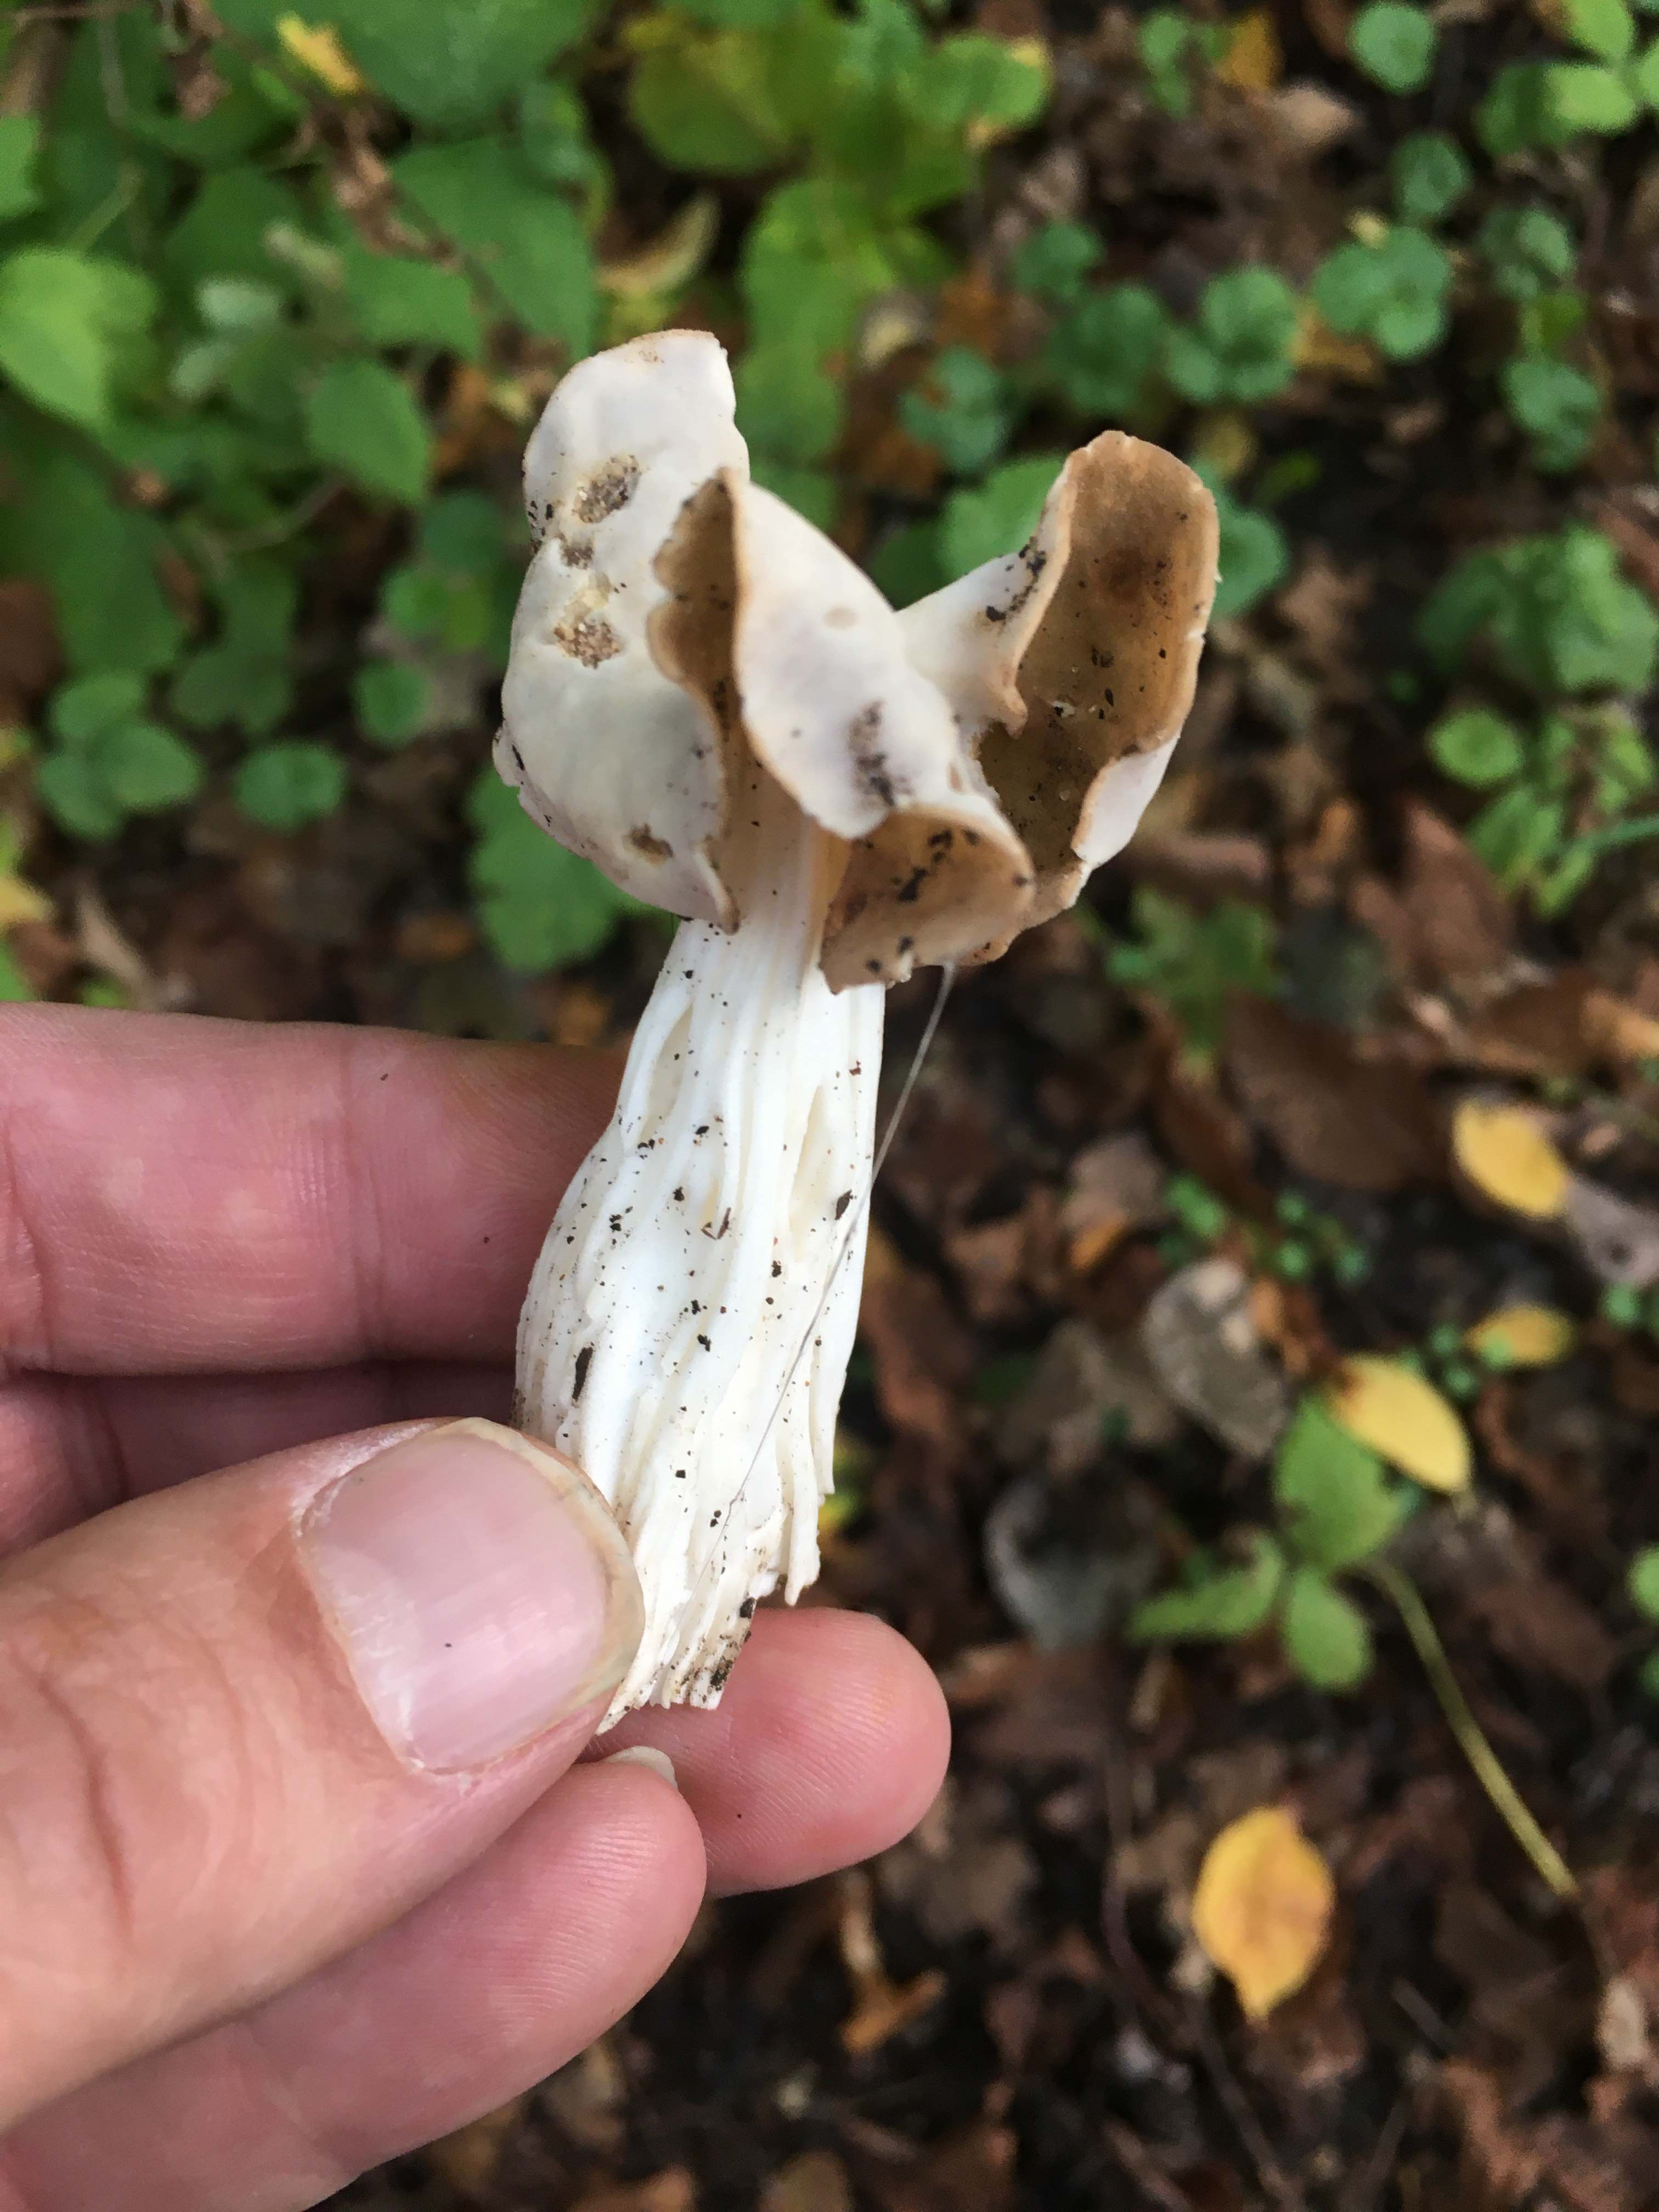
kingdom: Fungi
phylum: Ascomycota
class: Pezizomycetes
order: Pezizales
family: Helvellaceae
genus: Helvella
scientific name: Helvella crispa
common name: kruset foldhat
